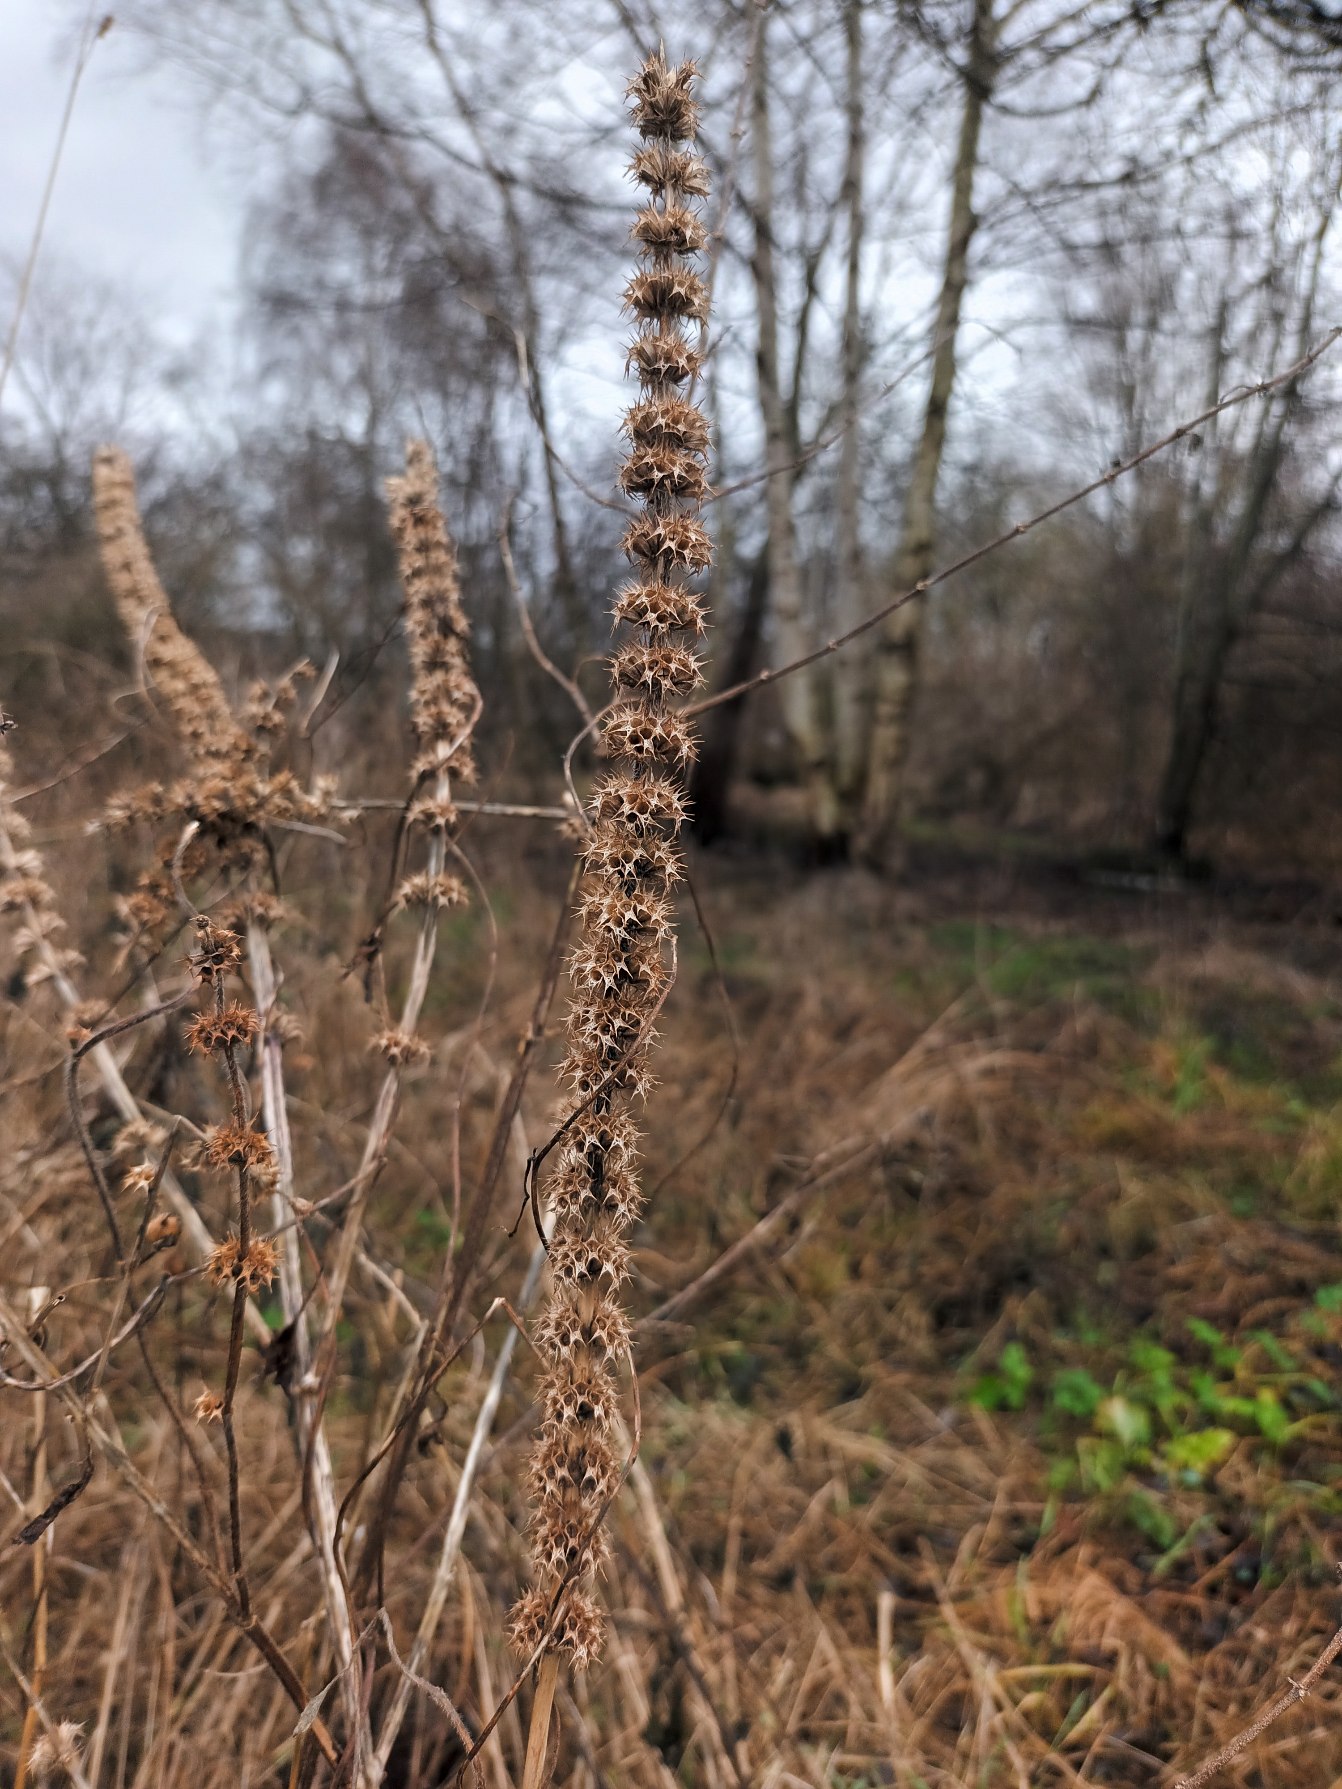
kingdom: Plantae
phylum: Tracheophyta
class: Magnoliopsida
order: Lamiales
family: Lamiaceae
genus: Leonurus
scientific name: Leonurus cardiaca
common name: Hjertespand
